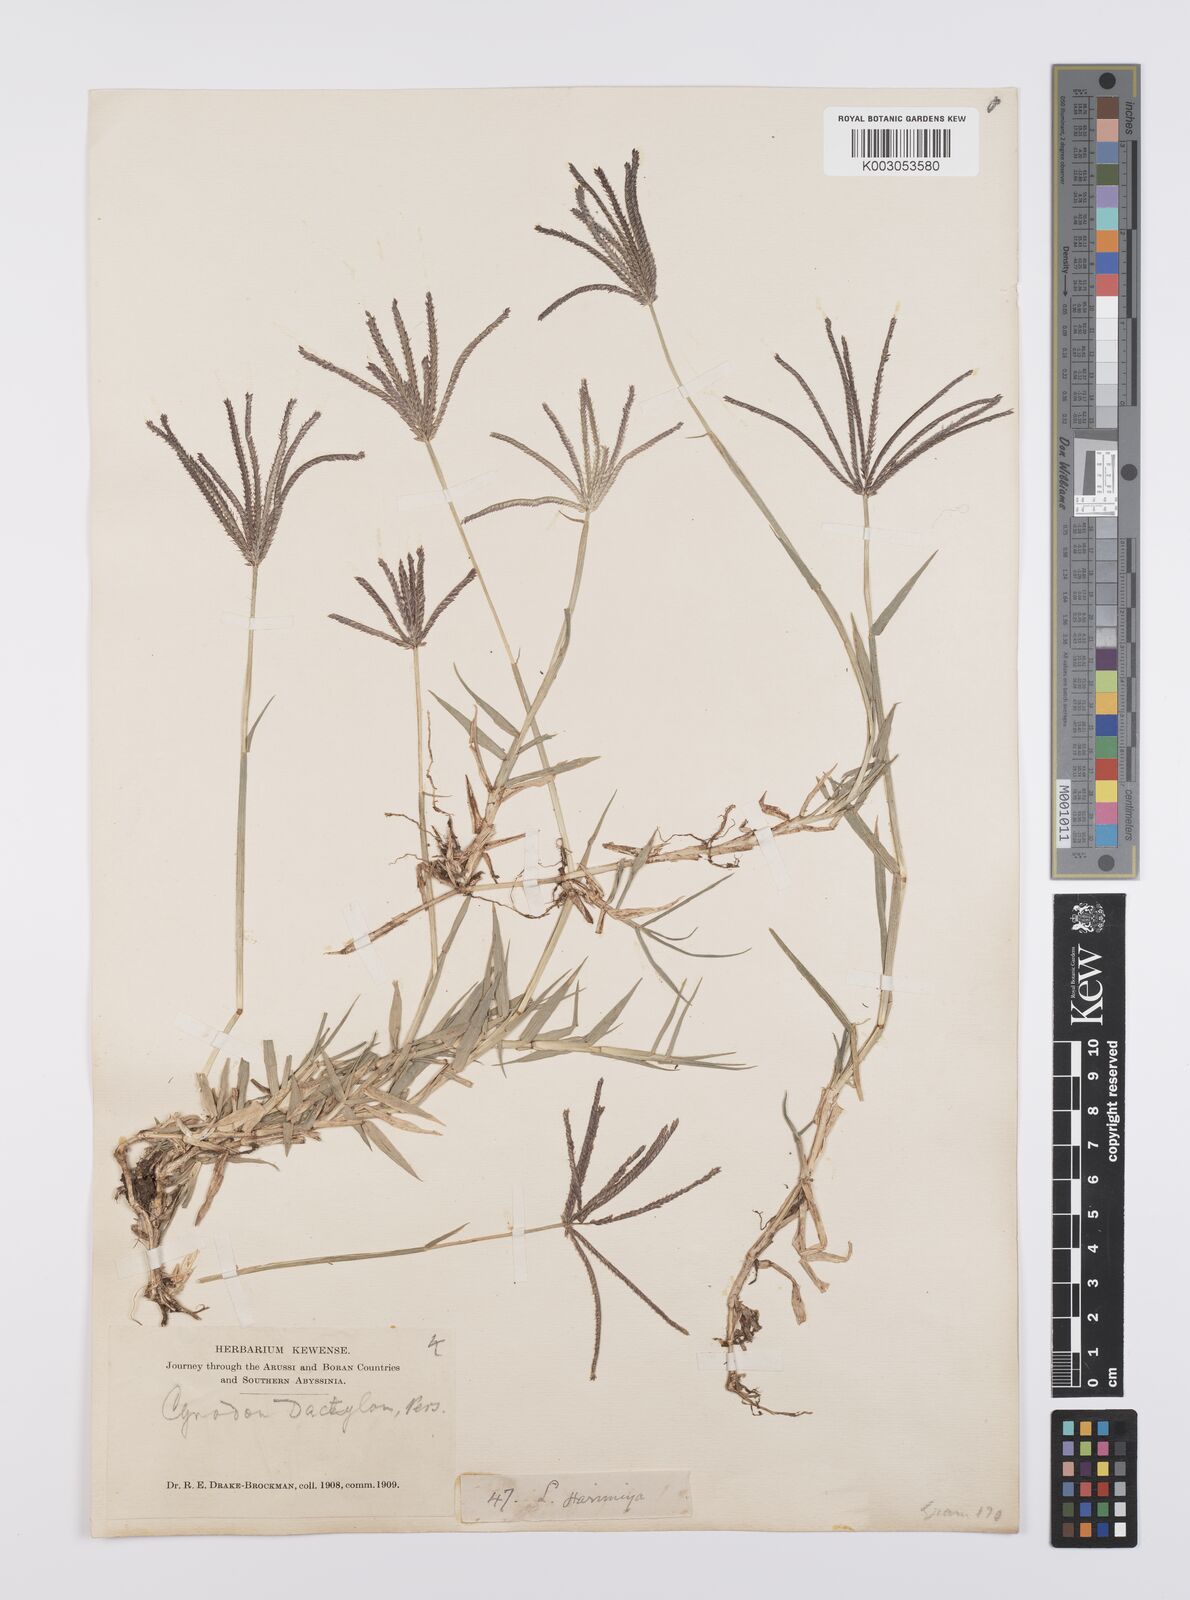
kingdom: Plantae
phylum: Tracheophyta
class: Liliopsida
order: Poales
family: Poaceae
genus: Cynodon
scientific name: Cynodon dactylon
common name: Bermuda grass
